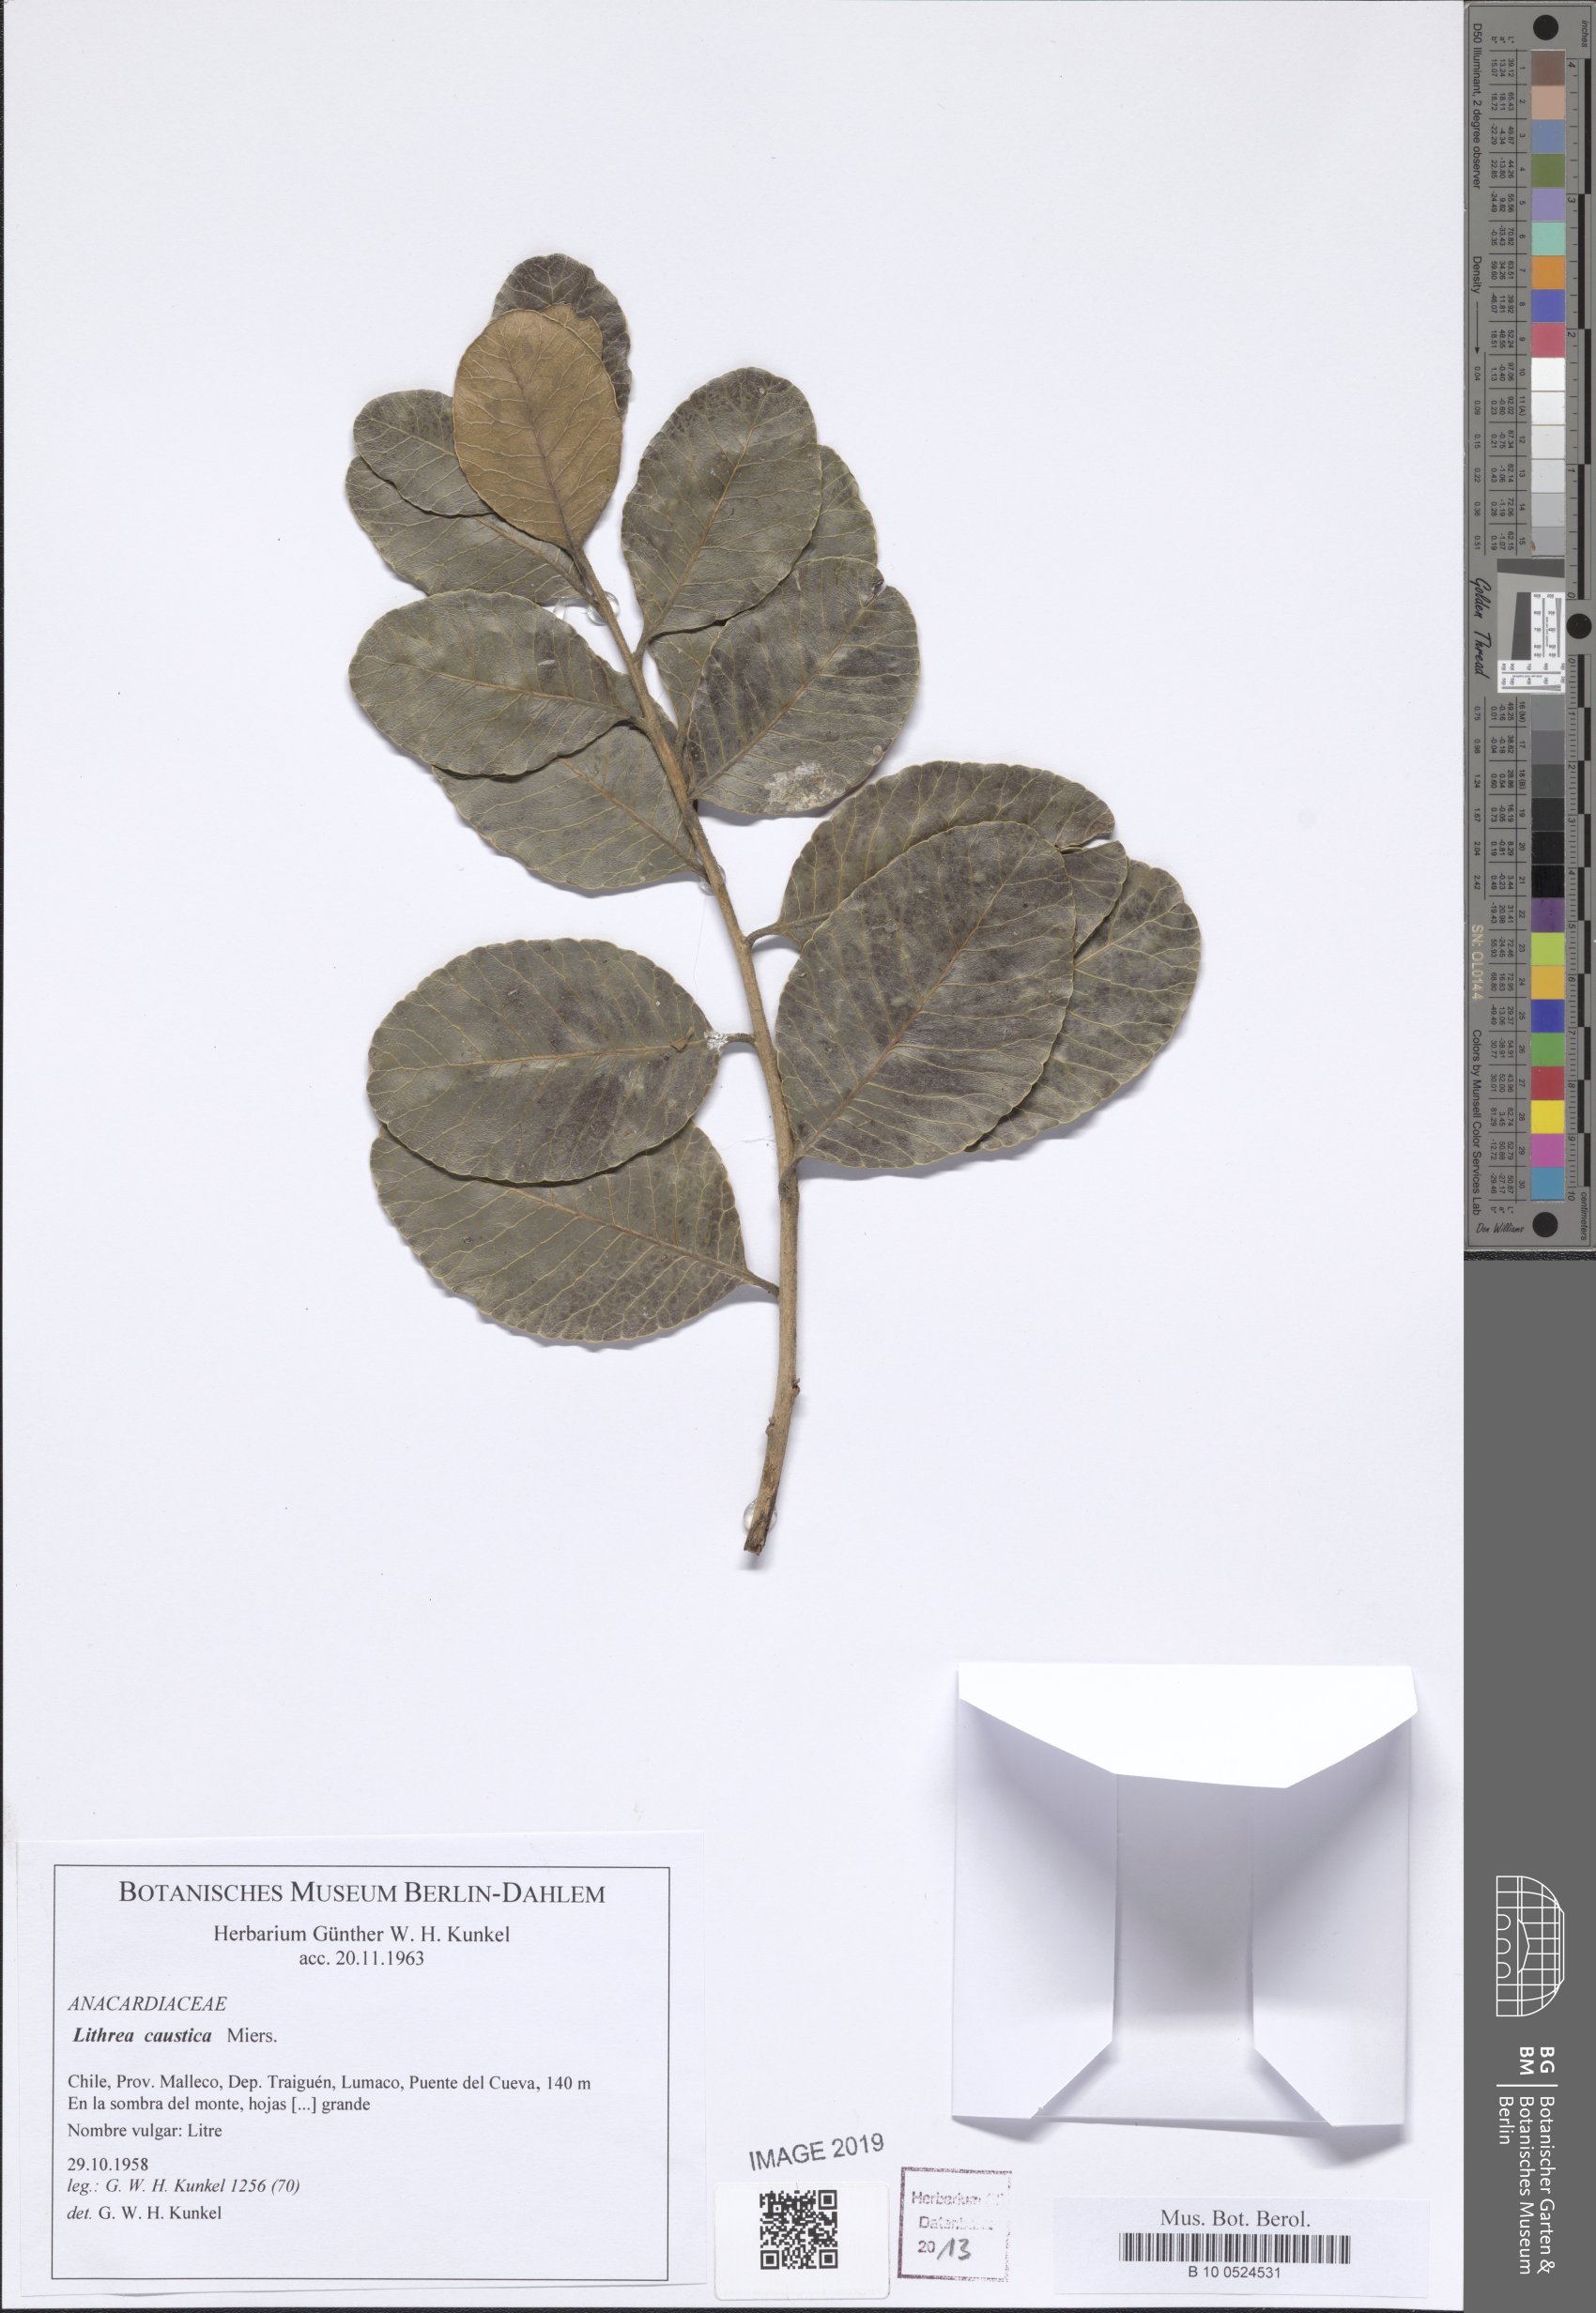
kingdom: Plantae
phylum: Tracheophyta
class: Magnoliopsida
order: Sapindales
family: Anacardiaceae
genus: Lithraea
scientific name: Lithraea Lithrea caustica
